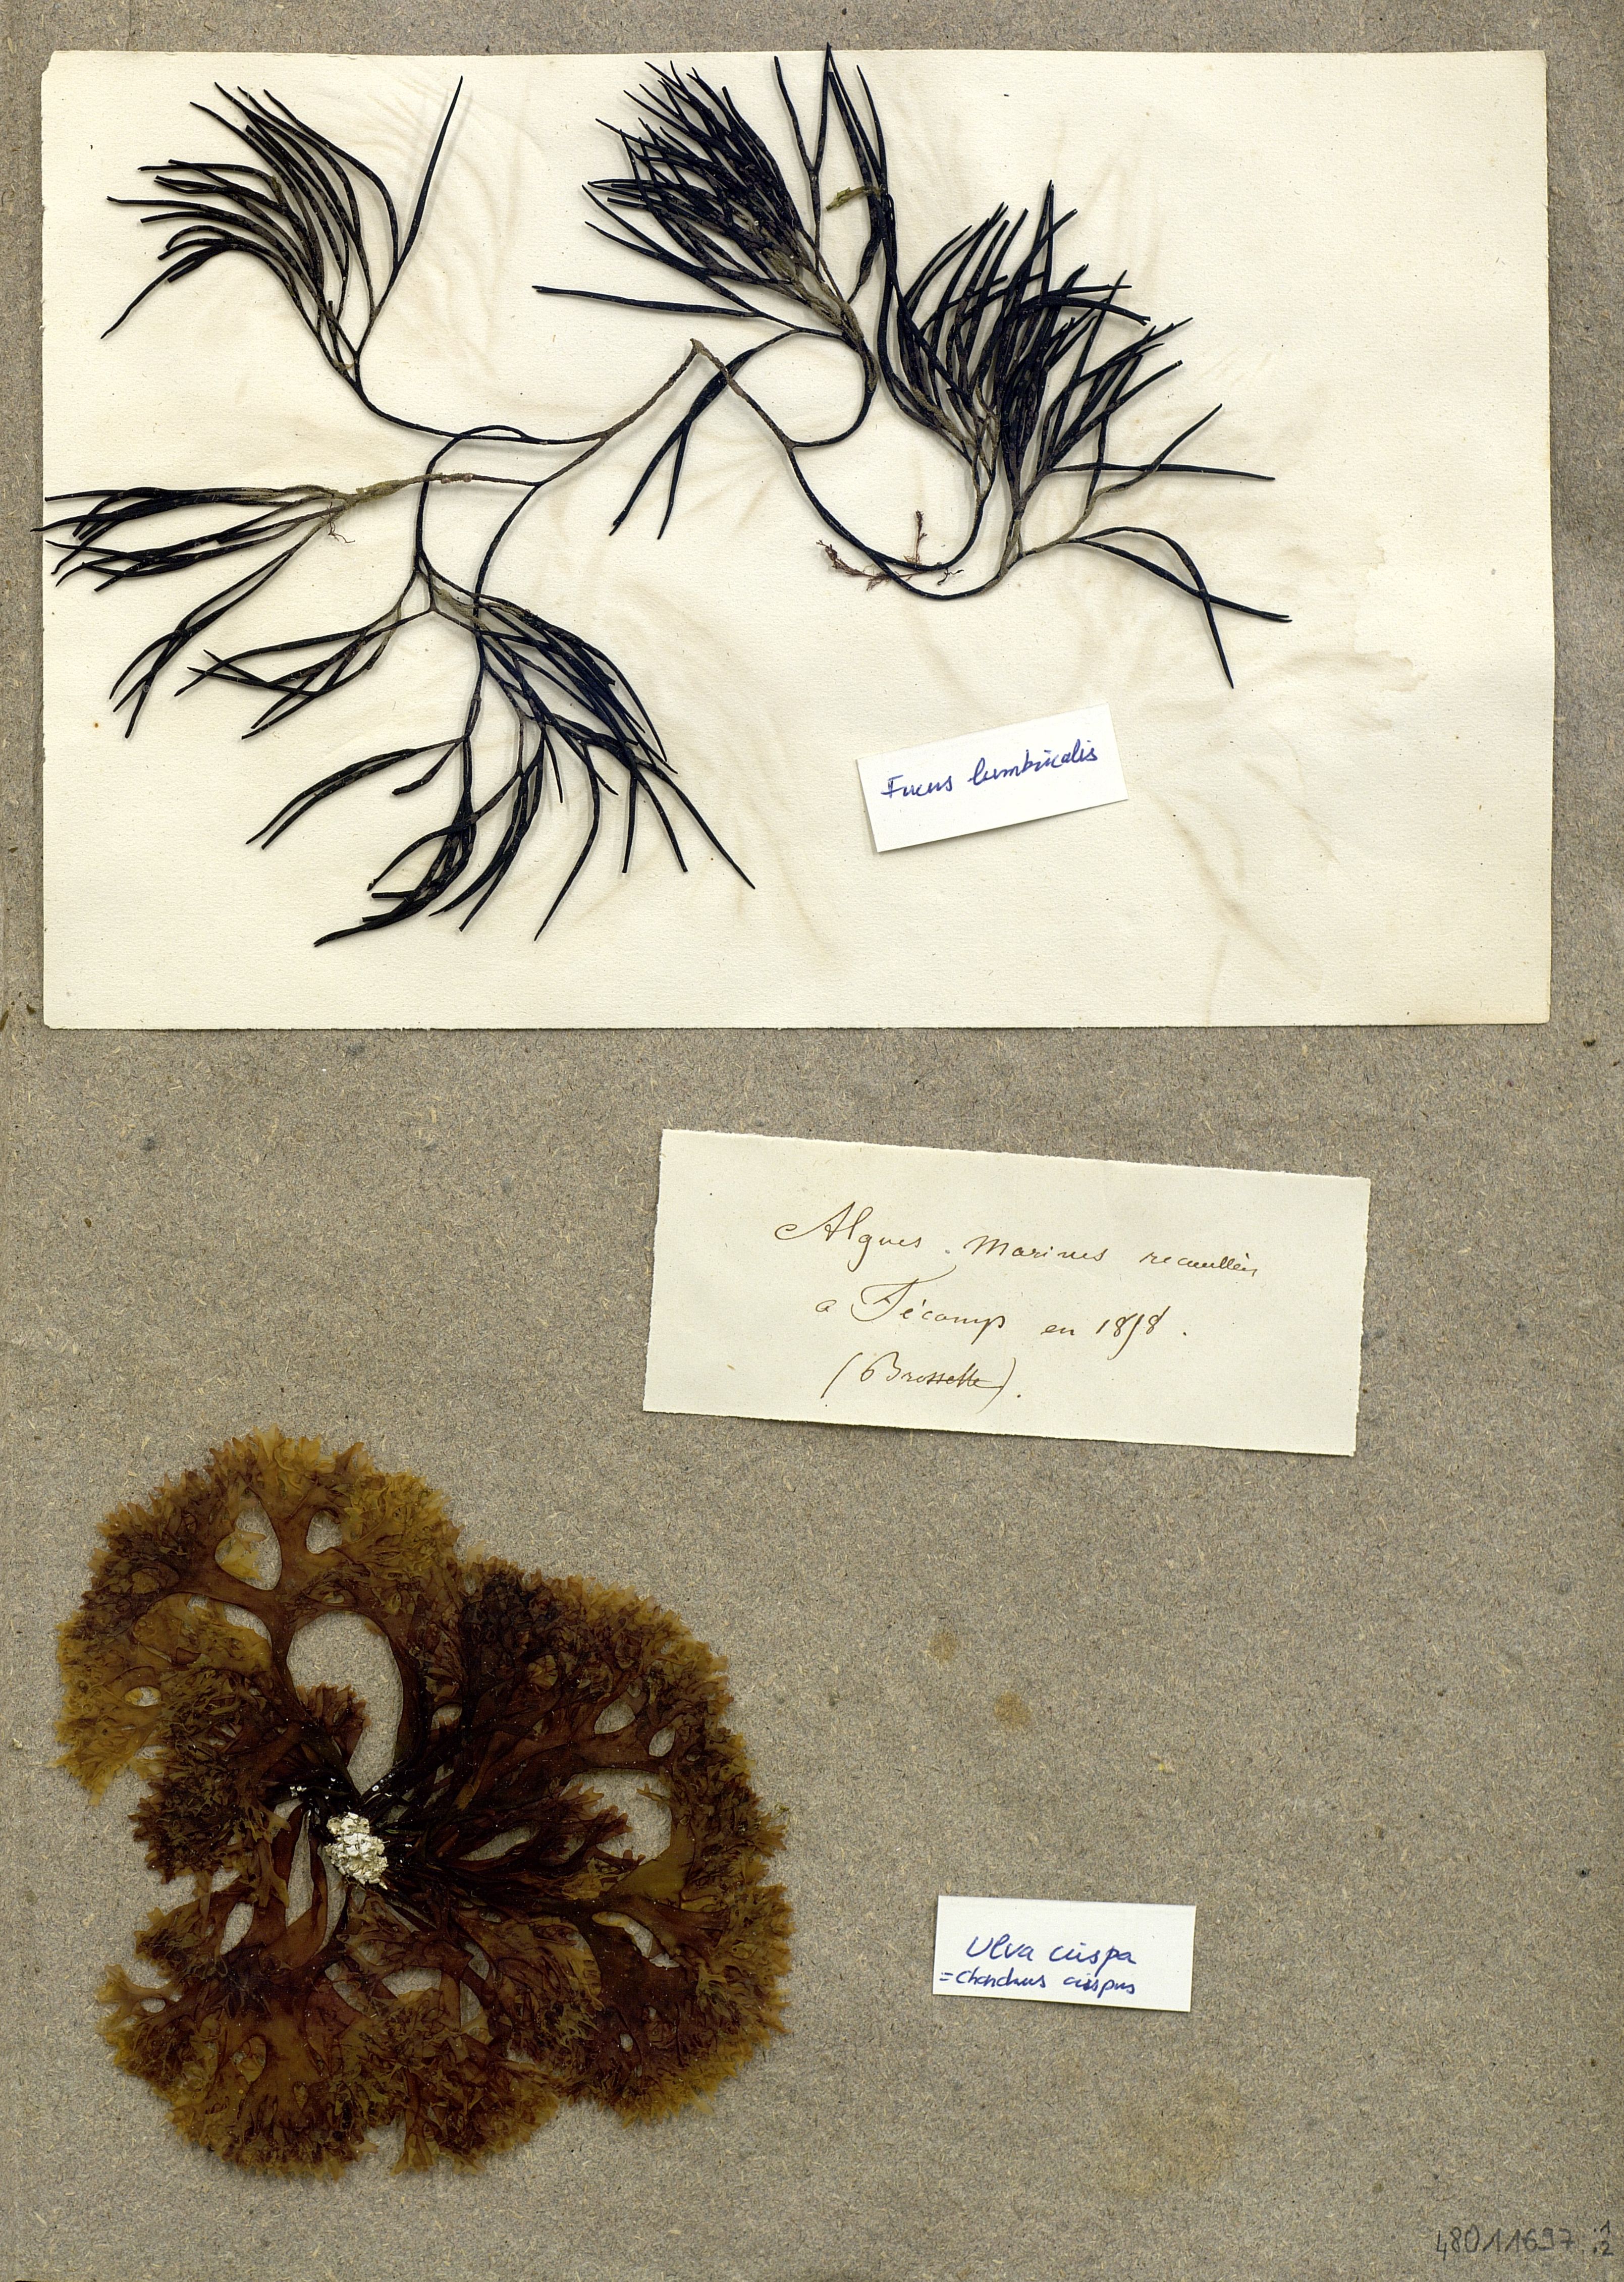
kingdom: Plantae
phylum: Chlorophyta
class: Ulvophyceae
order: Ulvales
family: Ulvaceae
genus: Ulva
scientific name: Ulva
